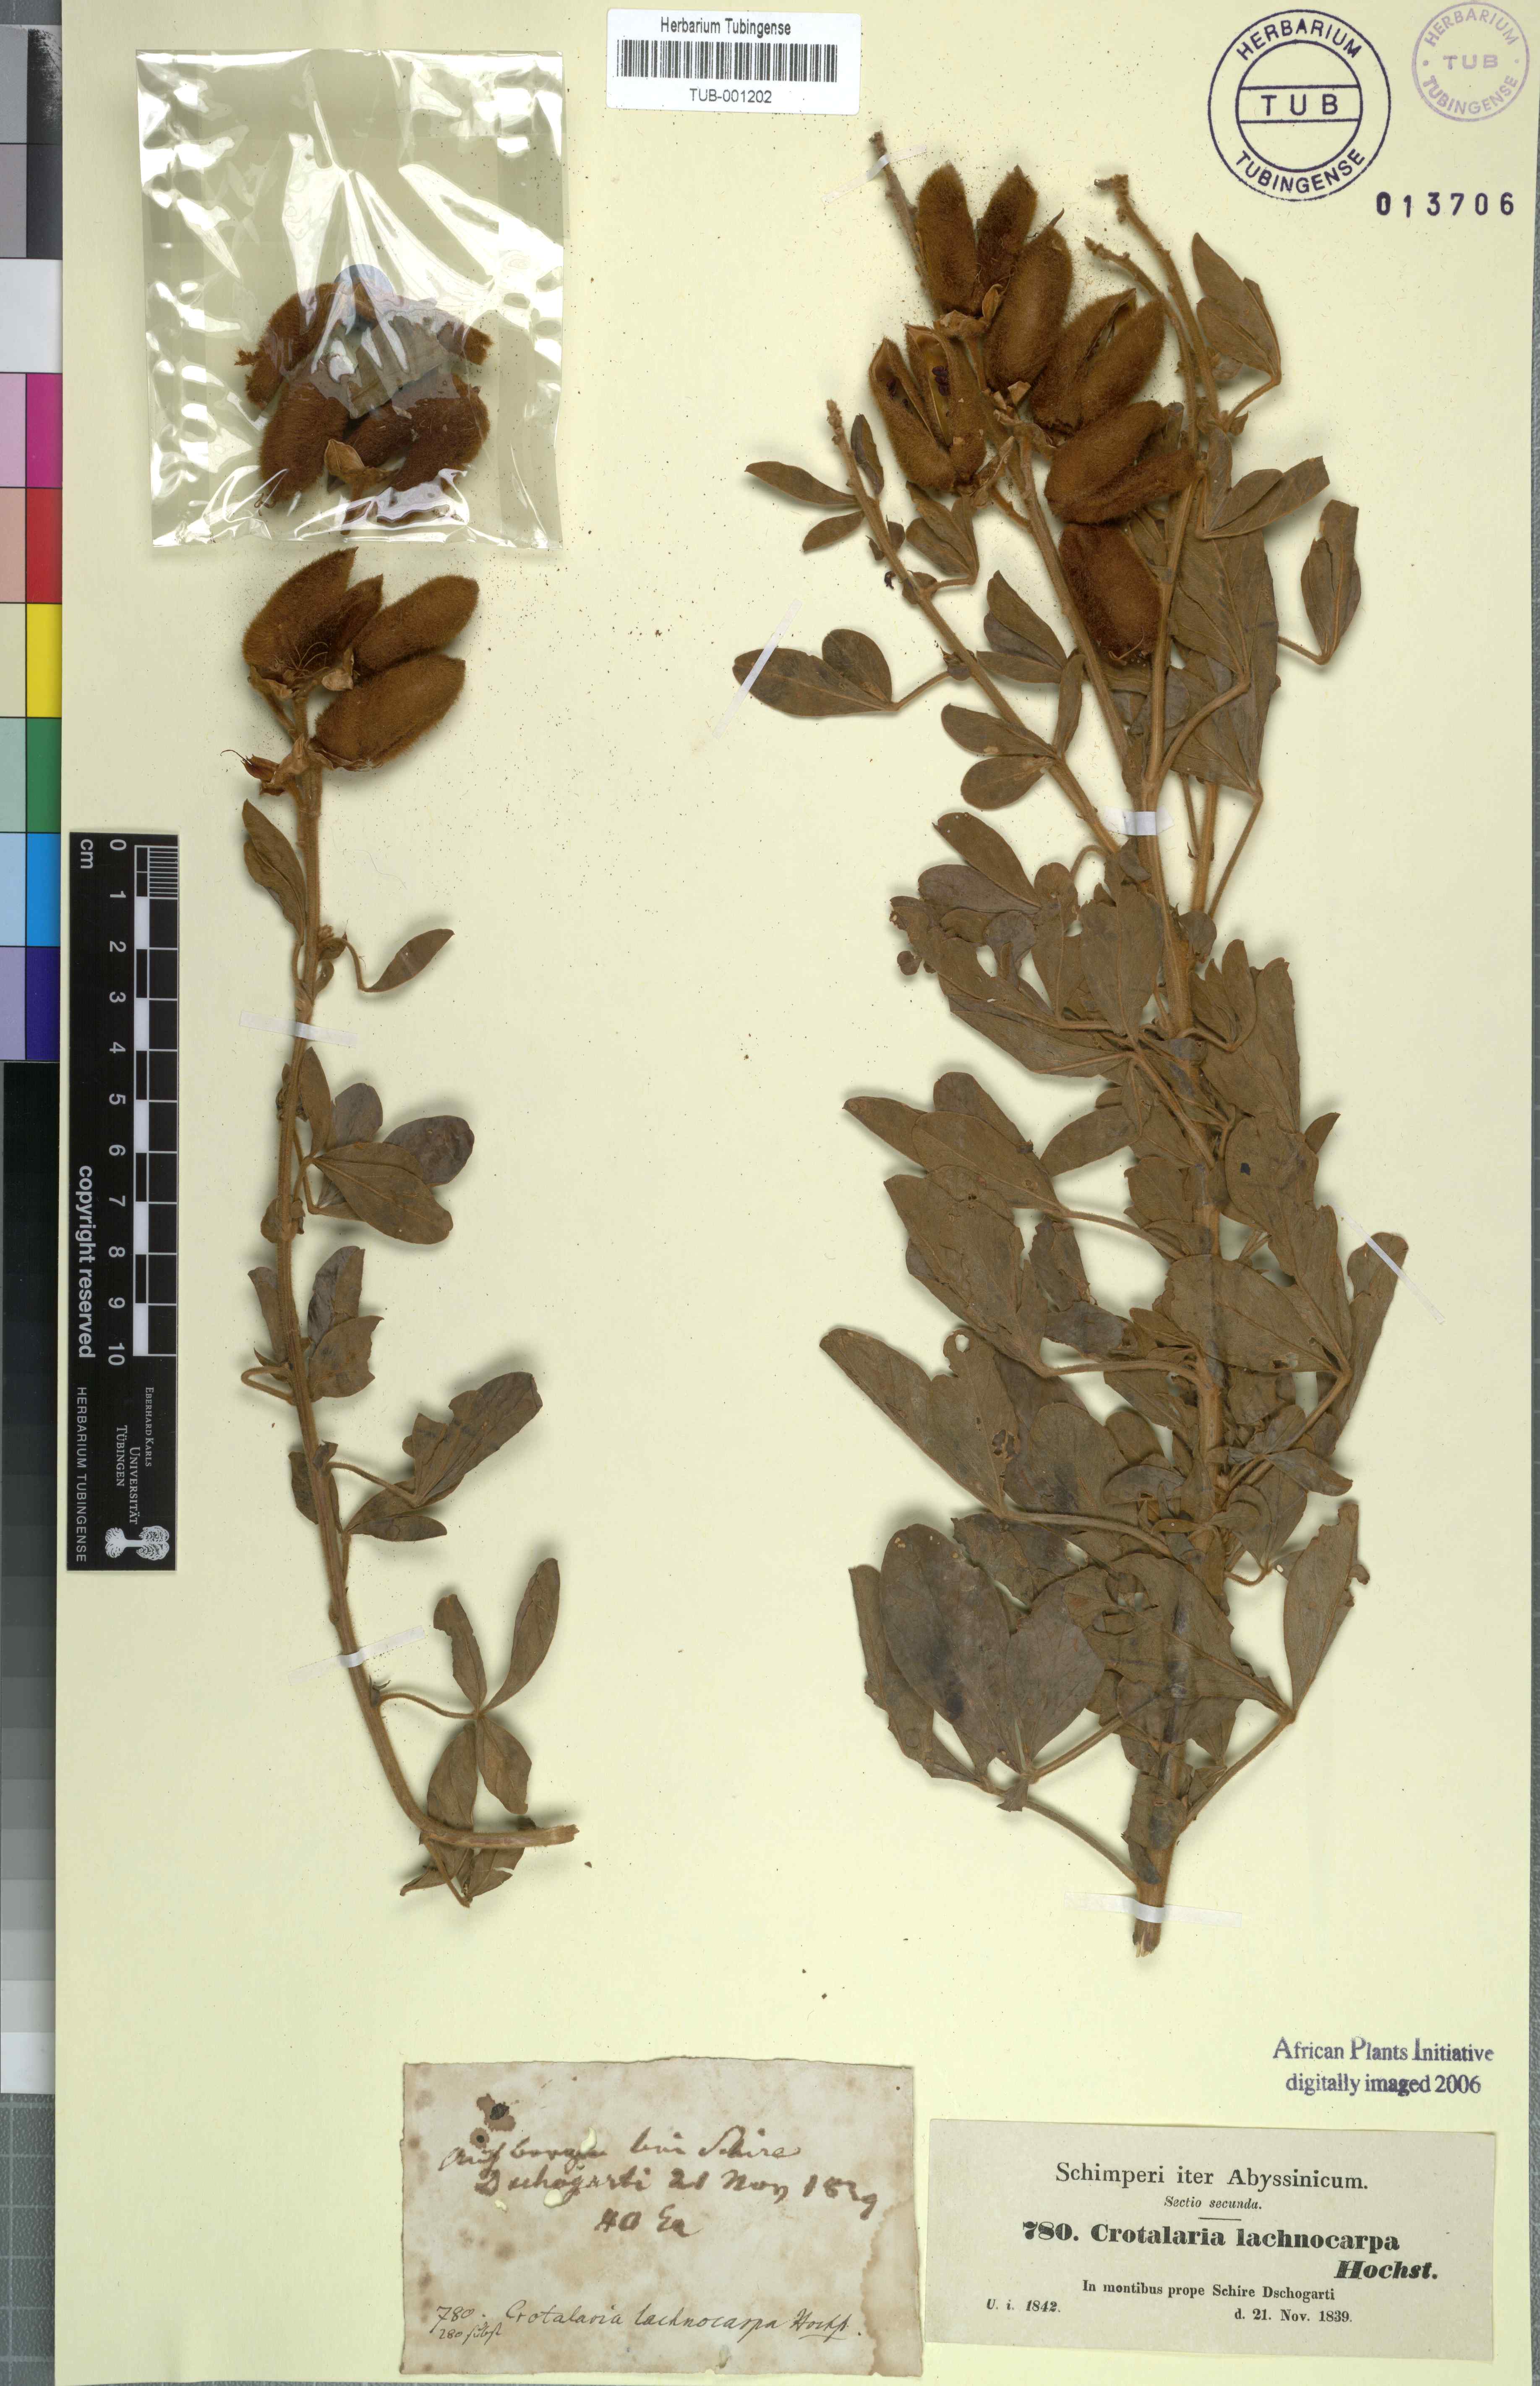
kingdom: Plantae
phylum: Tracheophyta
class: Magnoliopsida
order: Fabales
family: Fabaceae
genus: Crotalaria
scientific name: Crotalaria lachnophora
